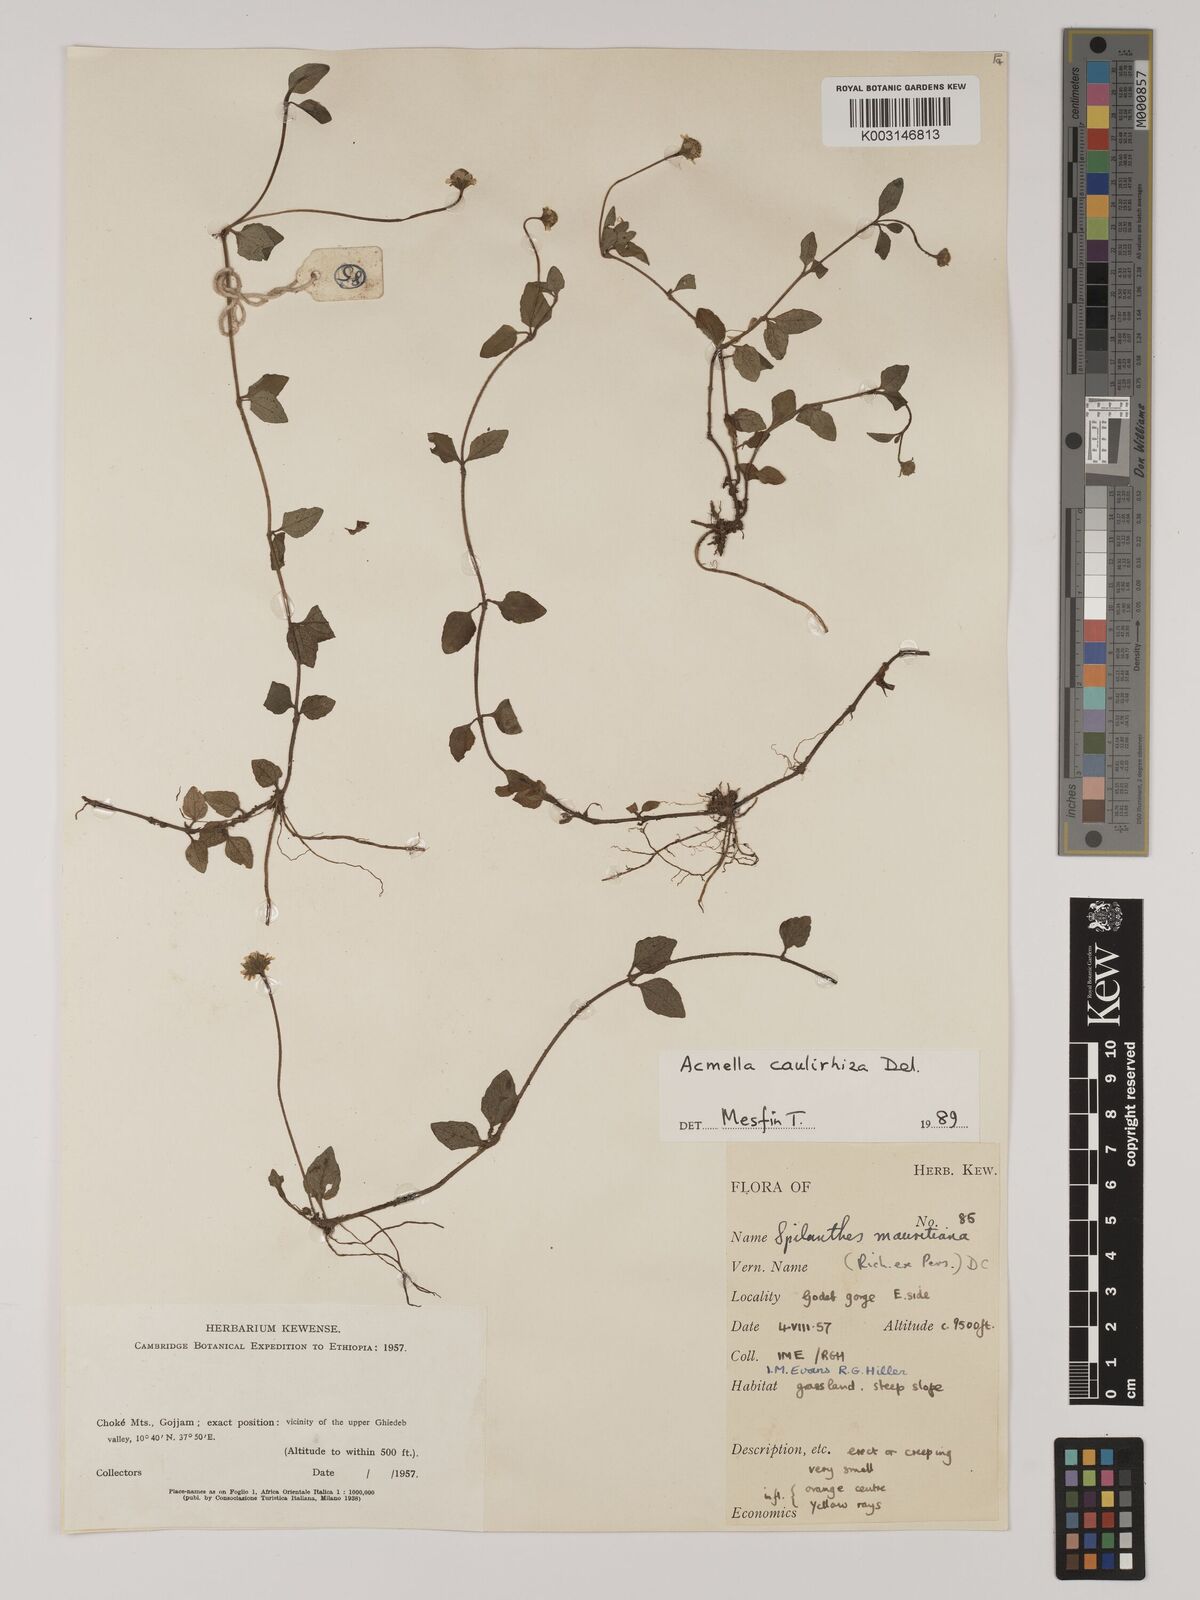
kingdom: Plantae
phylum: Tracheophyta
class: Magnoliopsida
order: Asterales
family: Asteraceae
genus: Blainvillea
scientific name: Blainvillea acmella
